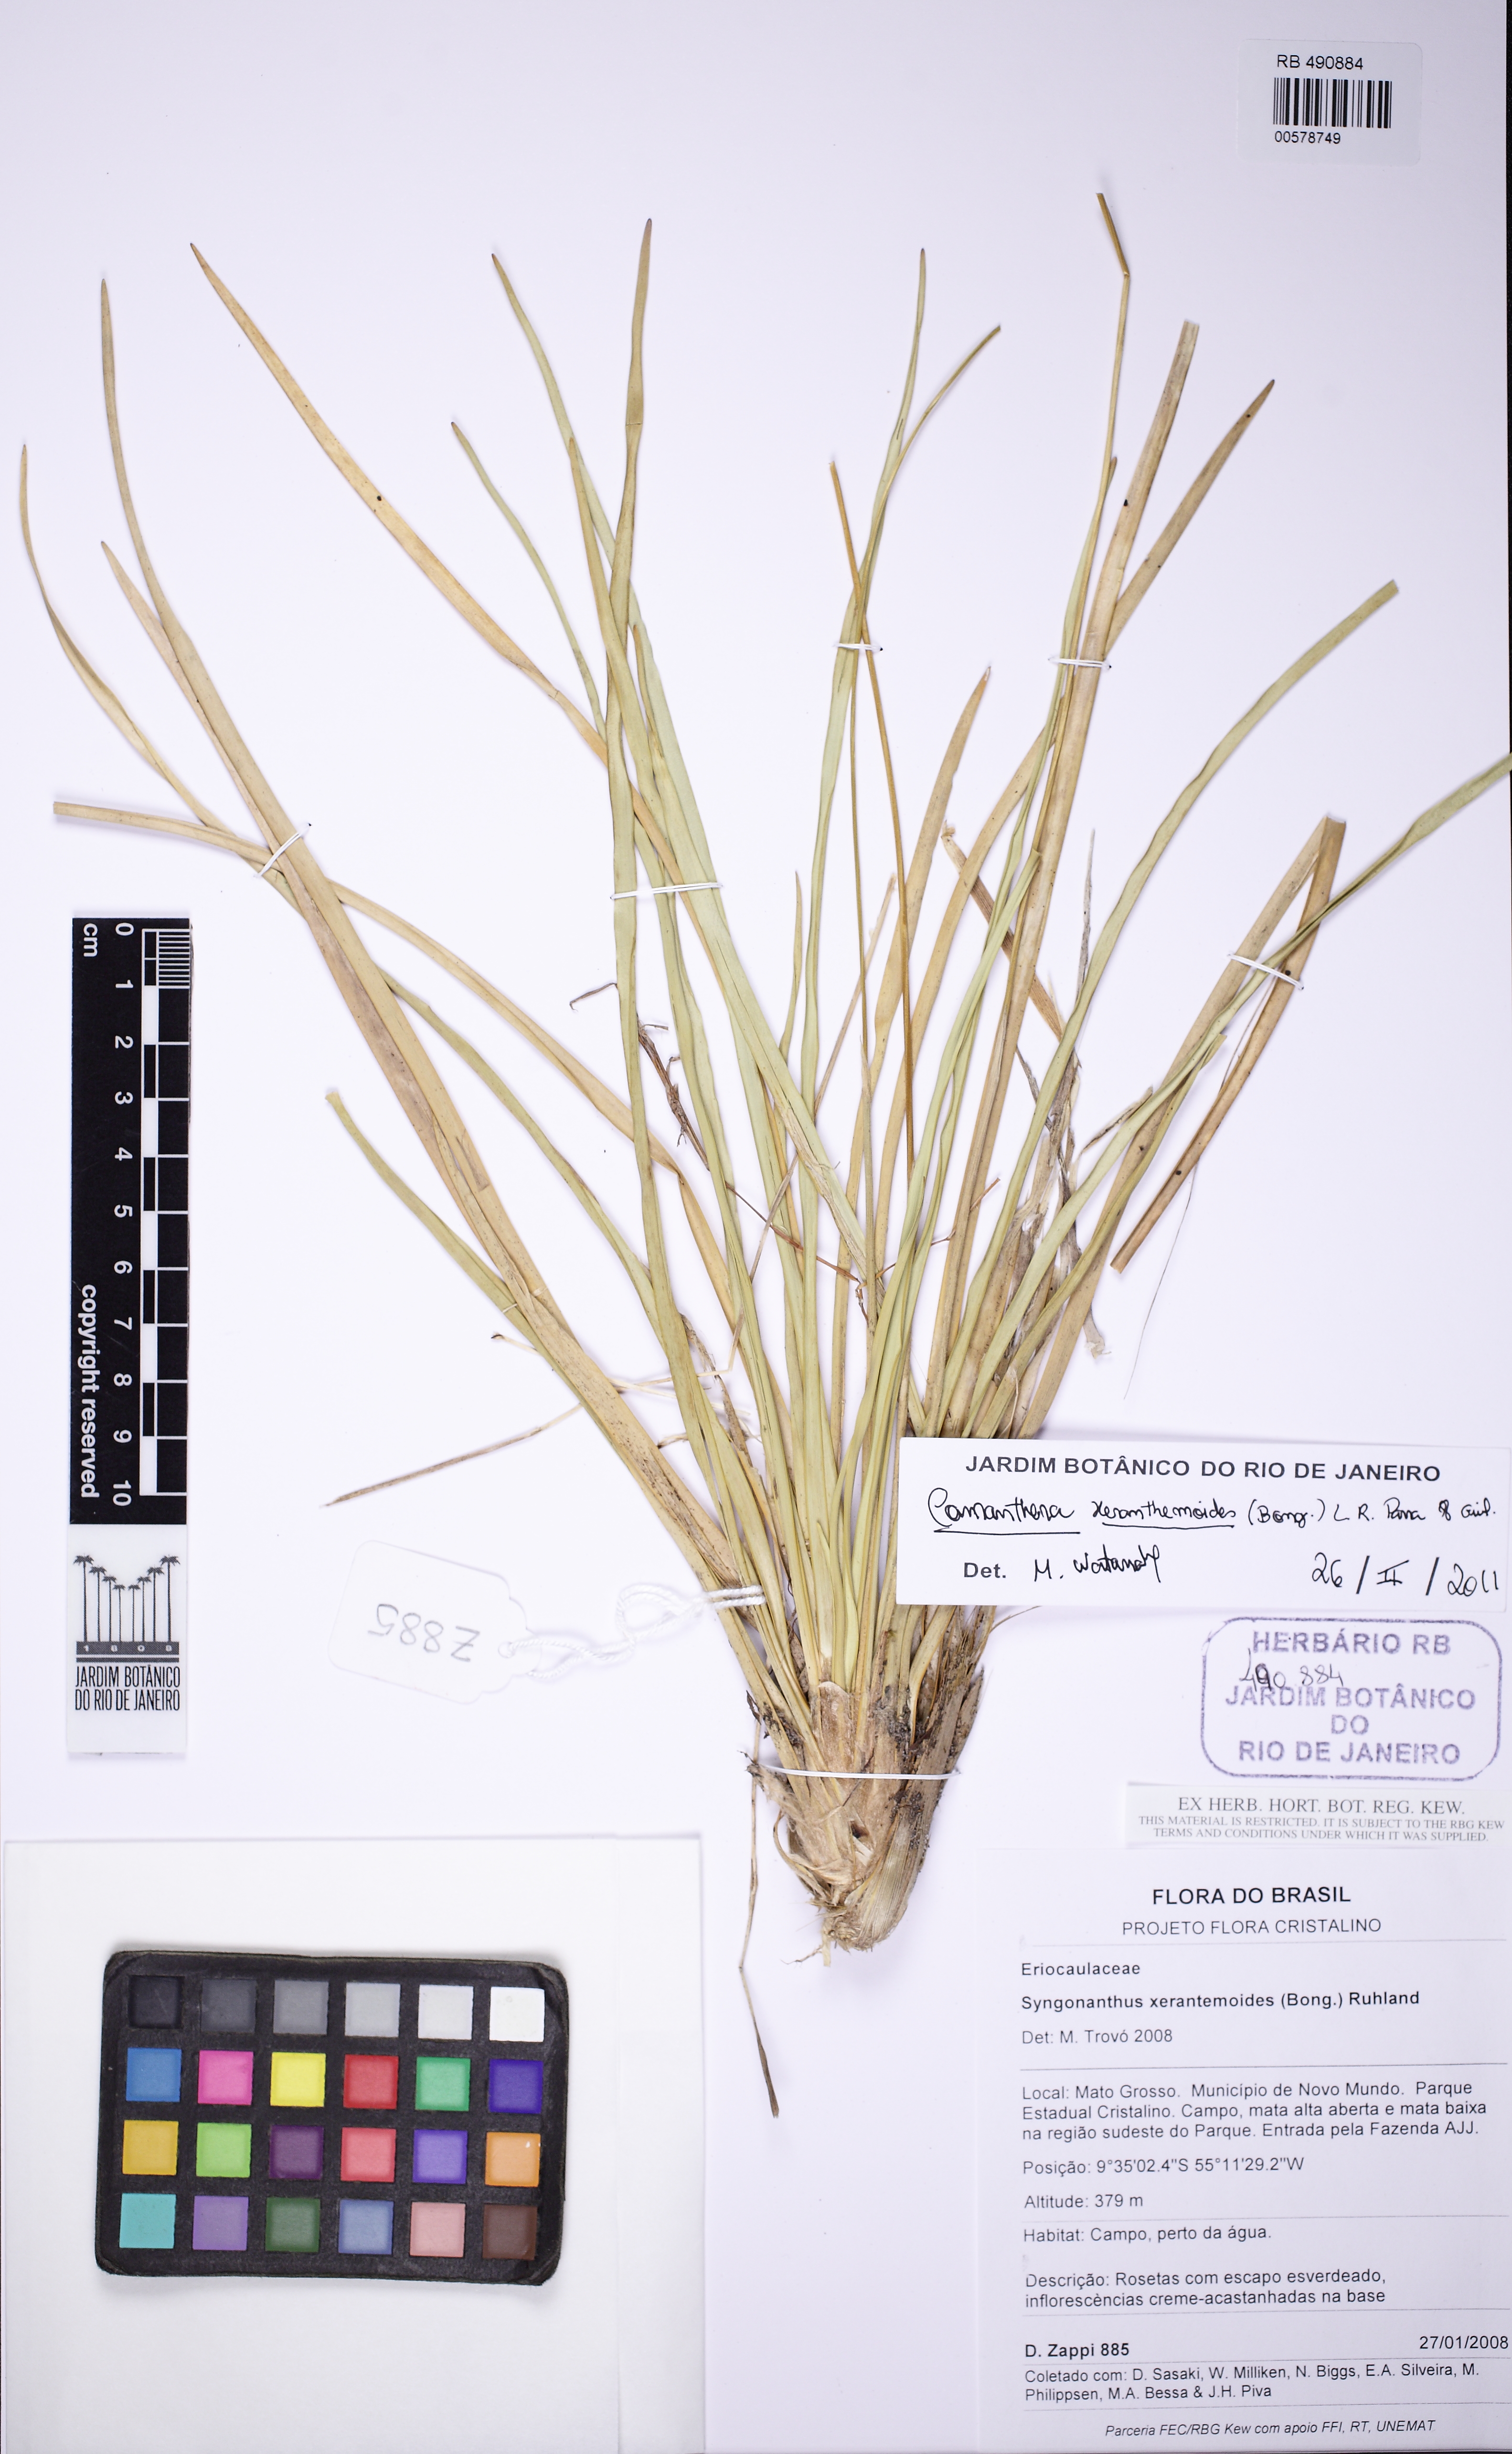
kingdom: Plantae
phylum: Tracheophyta
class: Liliopsida
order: Poales
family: Eriocaulaceae
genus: Comanthera
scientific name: Comanthera xeranthemoides
